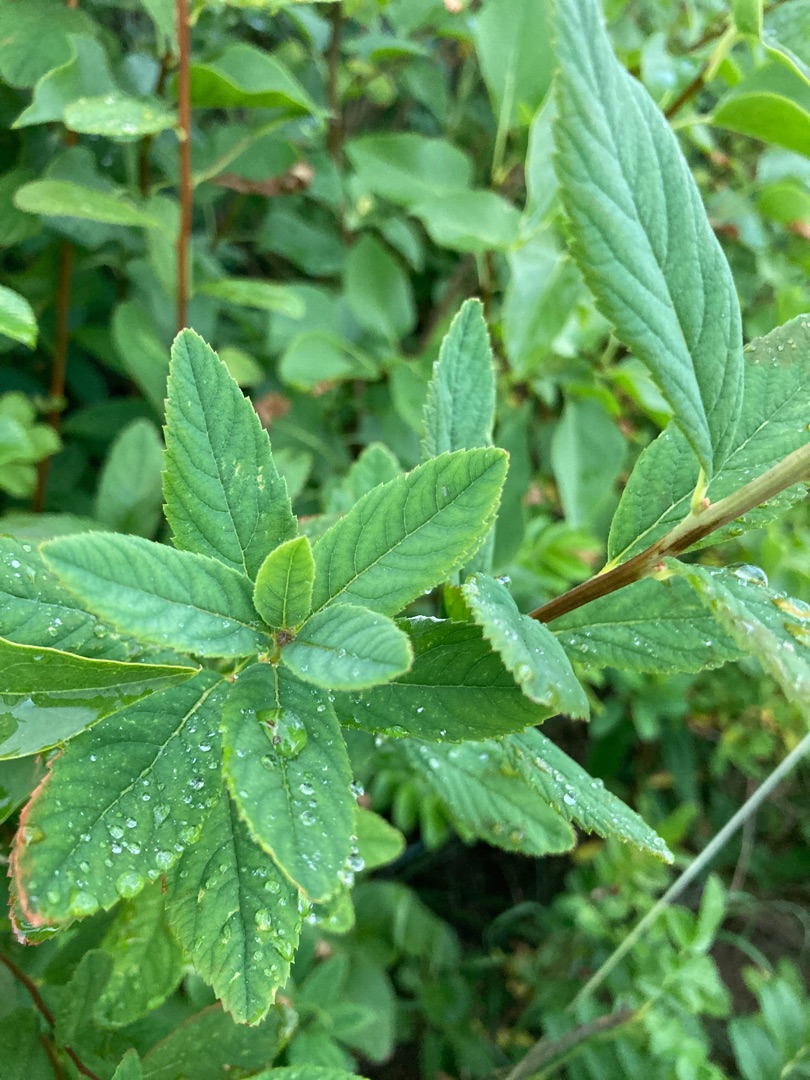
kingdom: Plantae
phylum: Tracheophyta
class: Magnoliopsida
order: Rosales
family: Rosaceae
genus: Spiraea
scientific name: Spiraea billardii
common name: Klase-spiræa
